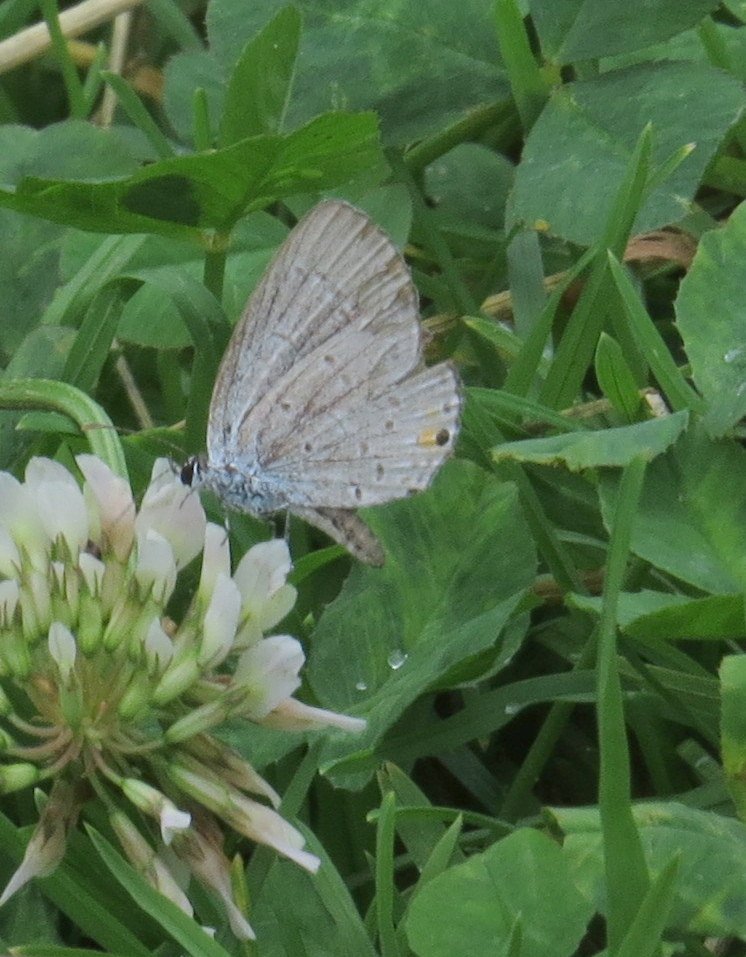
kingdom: Animalia
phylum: Arthropoda
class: Insecta
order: Lepidoptera
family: Lycaenidae
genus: Elkalyce
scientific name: Elkalyce comyntas
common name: Eastern Tailed-Blue
